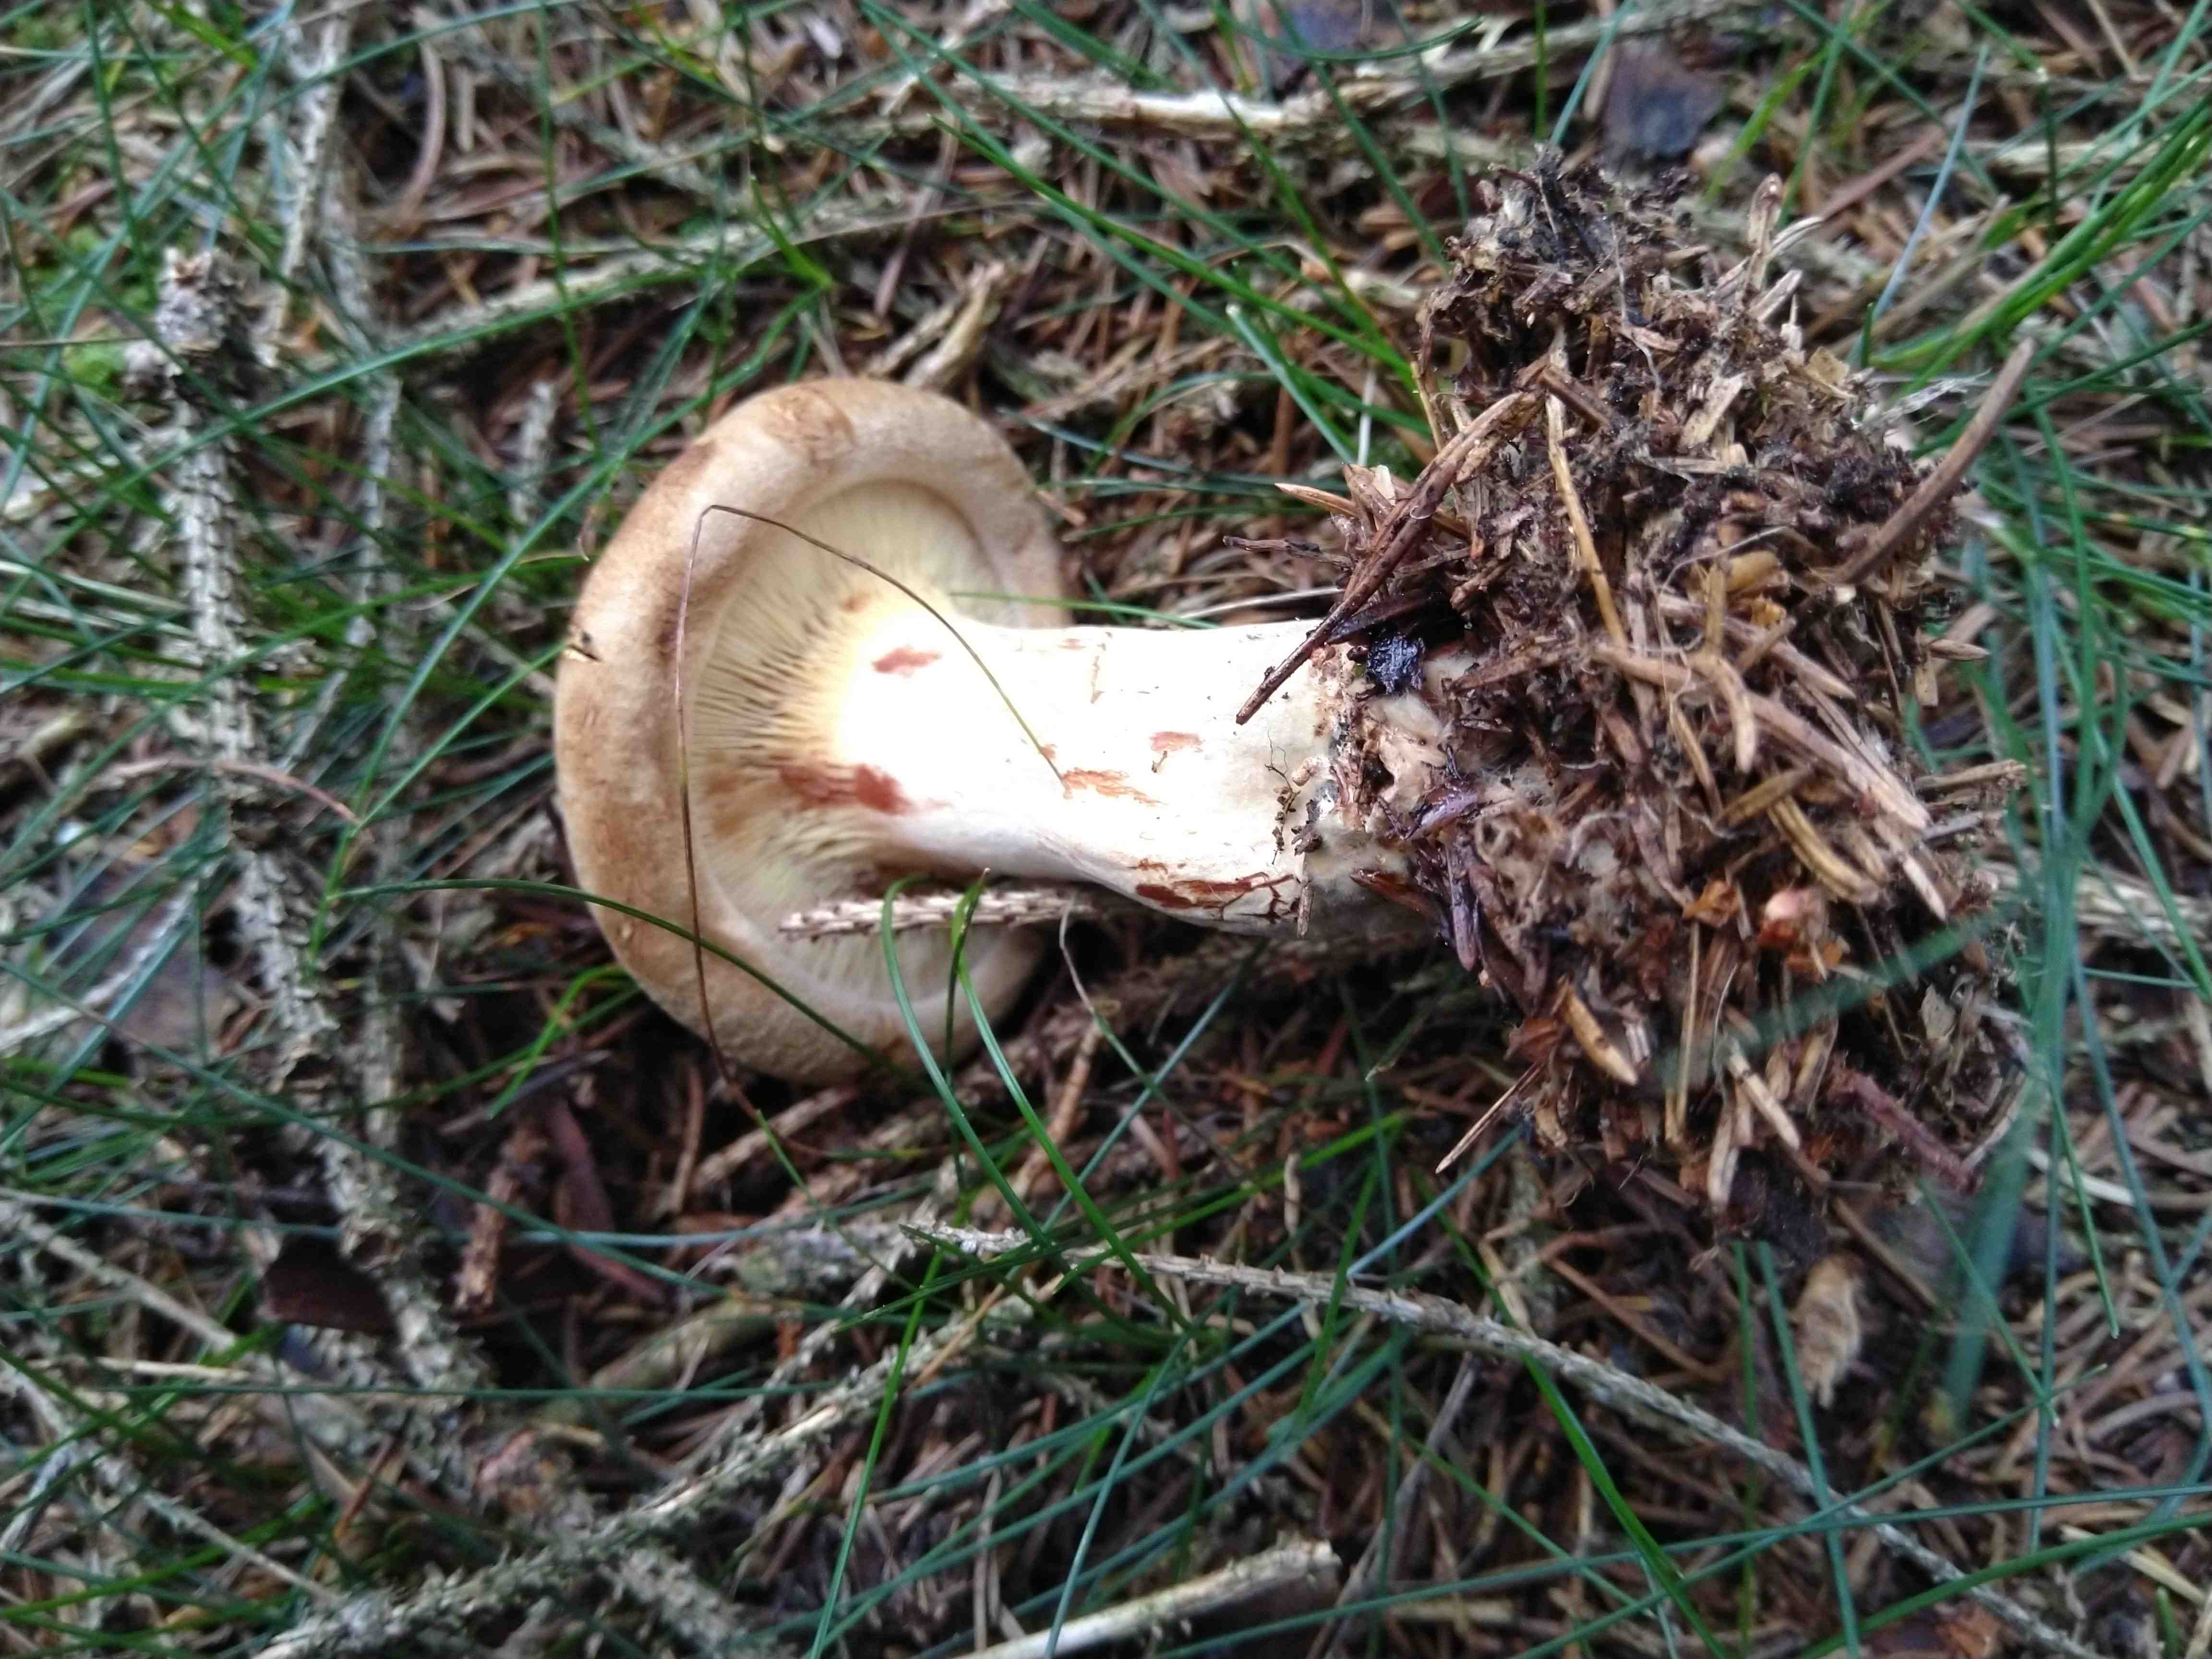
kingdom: Fungi
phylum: Basidiomycota
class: Agaricomycetes
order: Boletales
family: Paxillaceae
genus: Paxillus
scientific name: Paxillus involutus
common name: almindelig netbladhat
